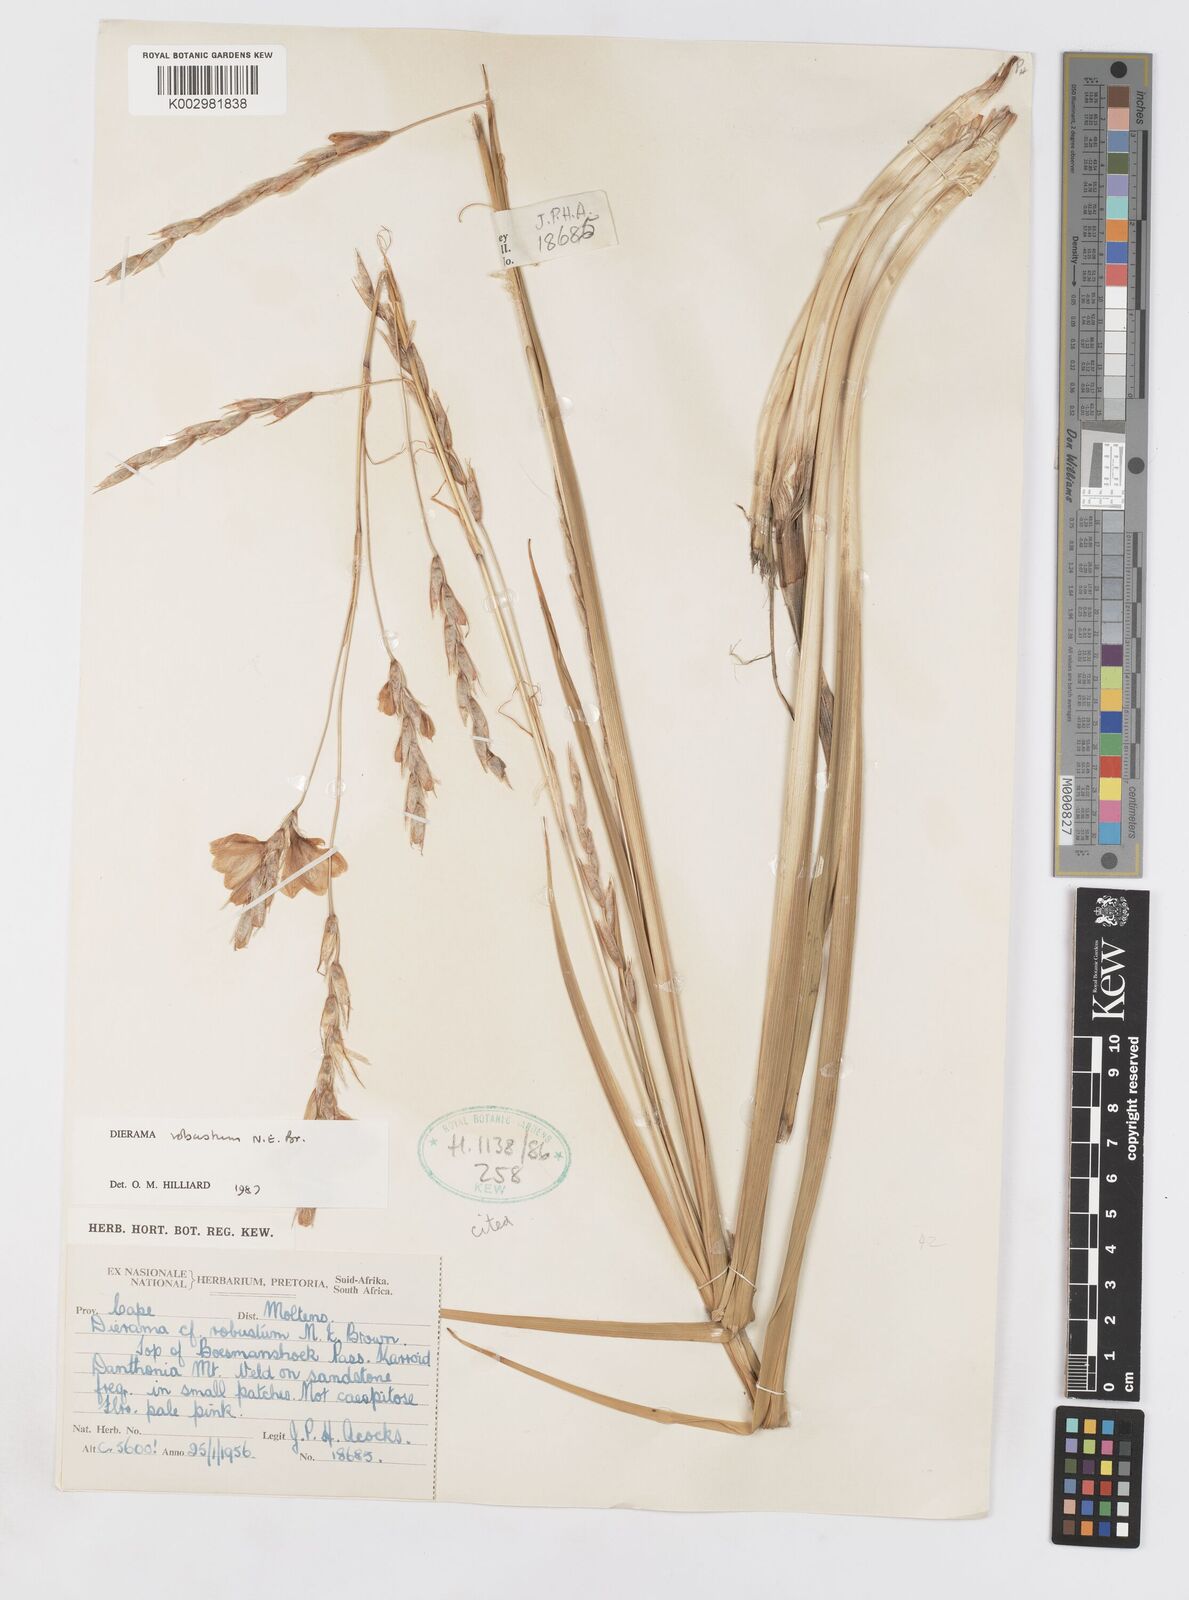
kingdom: Plantae
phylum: Tracheophyta
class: Liliopsida
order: Asparagales
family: Iridaceae
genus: Dierama
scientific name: Dierama robustum
